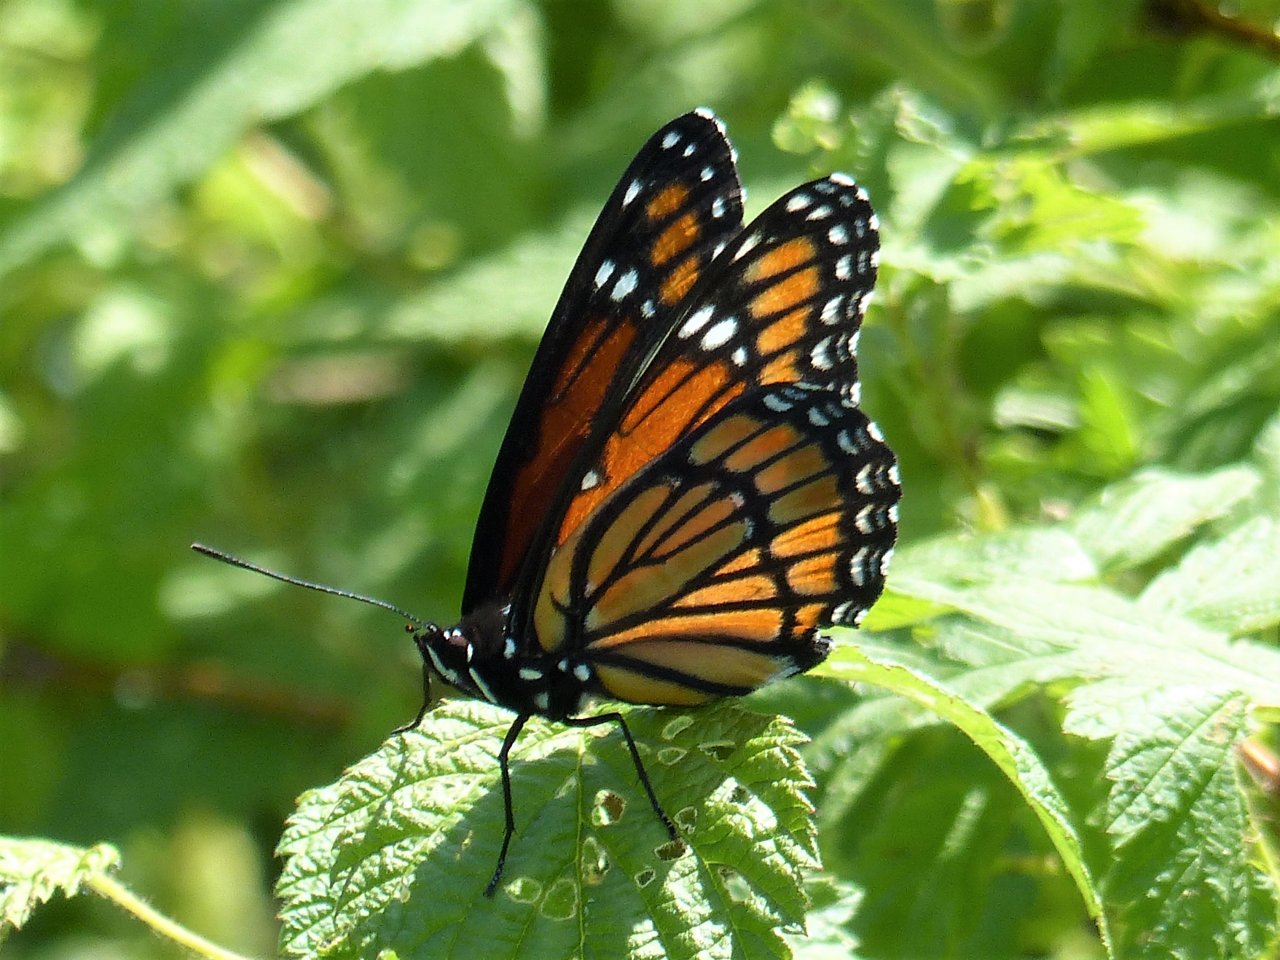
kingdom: Animalia
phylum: Arthropoda
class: Insecta
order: Lepidoptera
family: Nymphalidae
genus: Limenitis
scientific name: Limenitis archippus
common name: Viceroy
